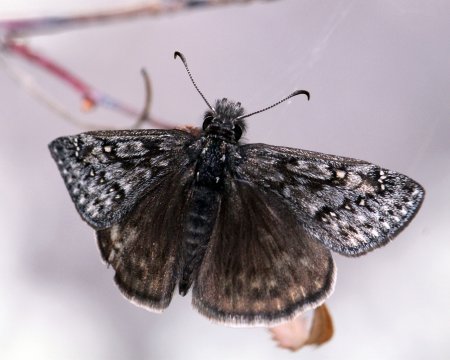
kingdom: Animalia
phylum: Arthropoda
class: Insecta
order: Lepidoptera
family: Hesperiidae
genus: Erynnis
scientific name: Erynnis telemachus
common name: Rocky Mountain Duskywing
